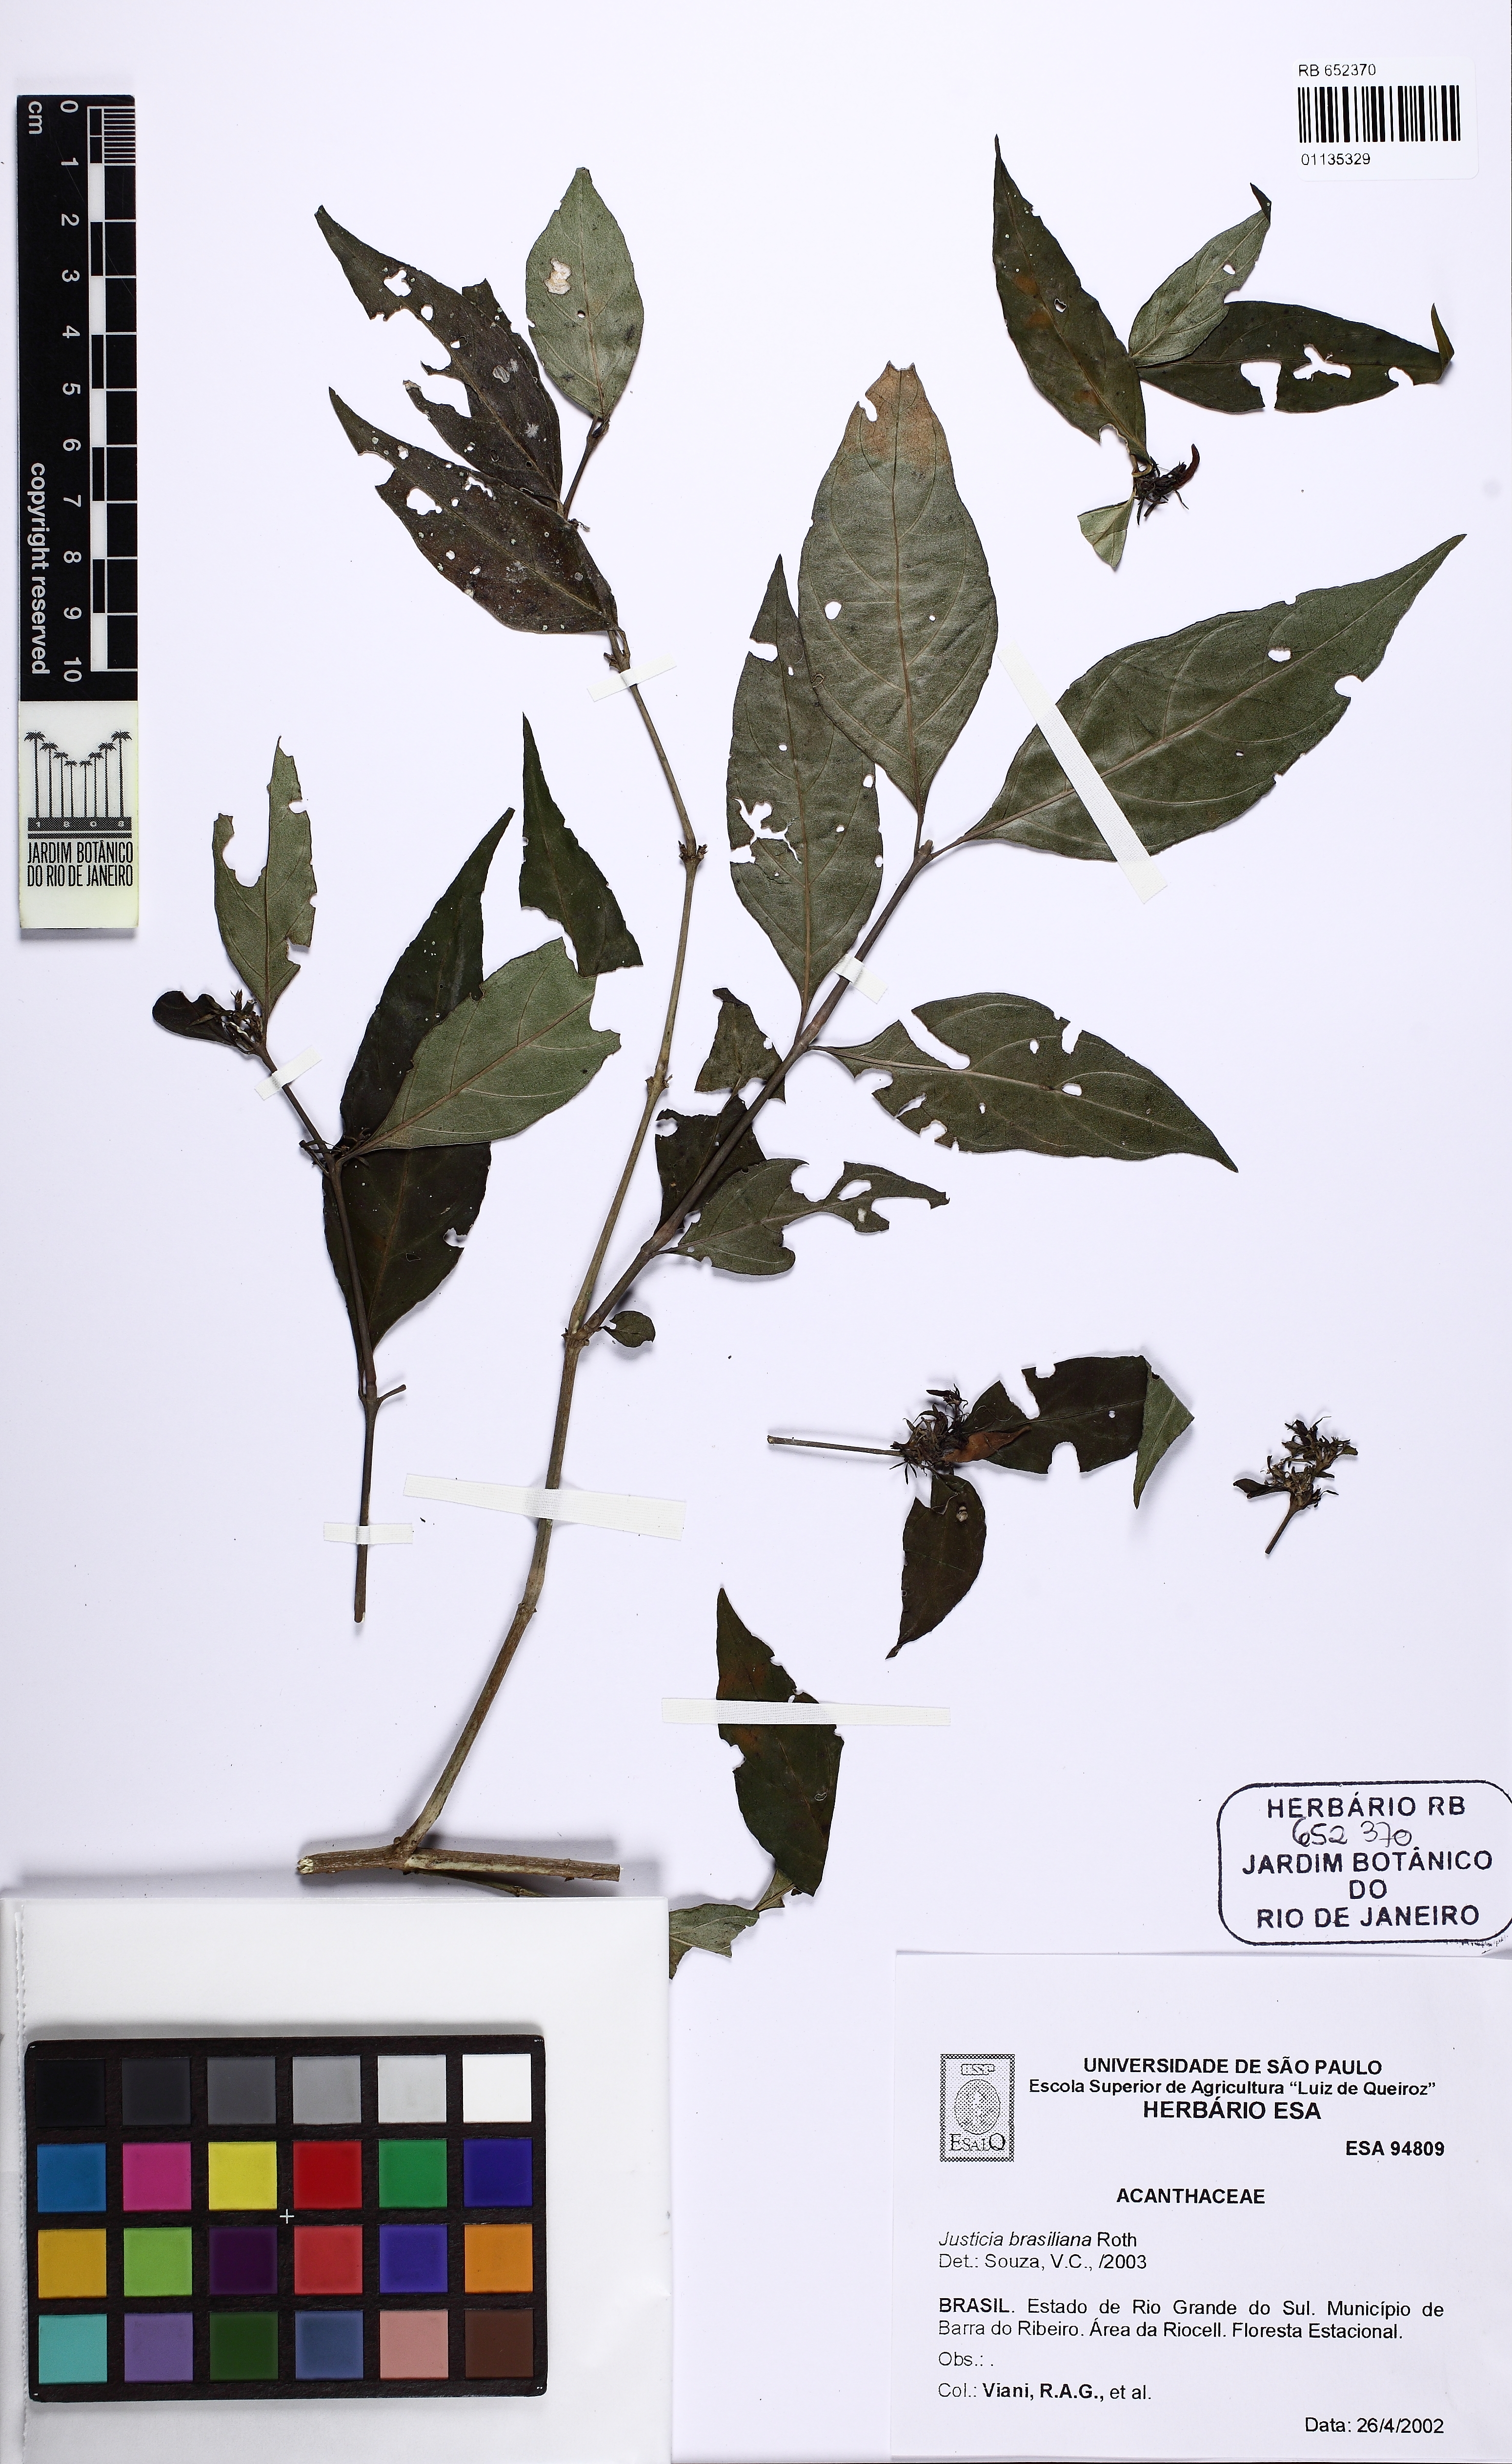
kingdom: Plantae
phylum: Tracheophyta
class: Magnoliopsida
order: Lamiales
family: Acanthaceae
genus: Justicia
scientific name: Justicia brasiliana
